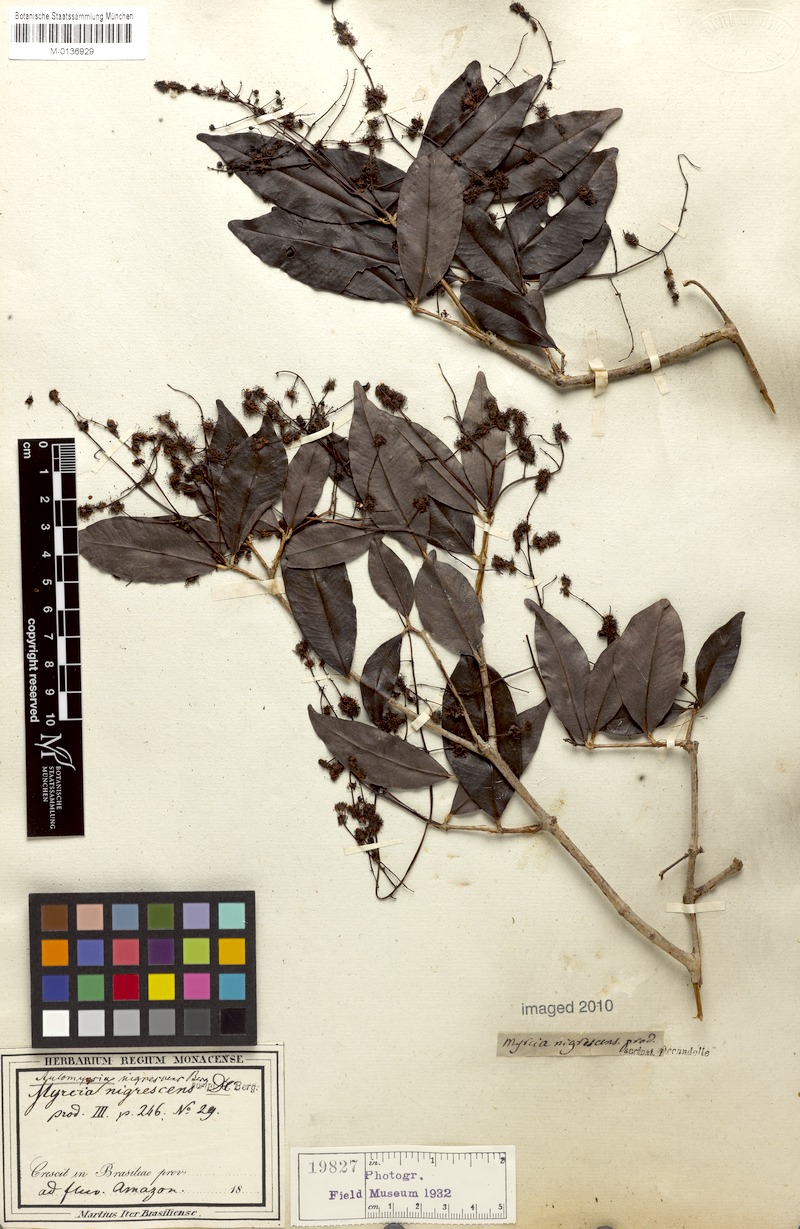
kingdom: Plantae
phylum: Tracheophyta
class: Magnoliopsida
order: Myrtales
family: Myrtaceae
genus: Myrcia
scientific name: Myrcia umbraticola
